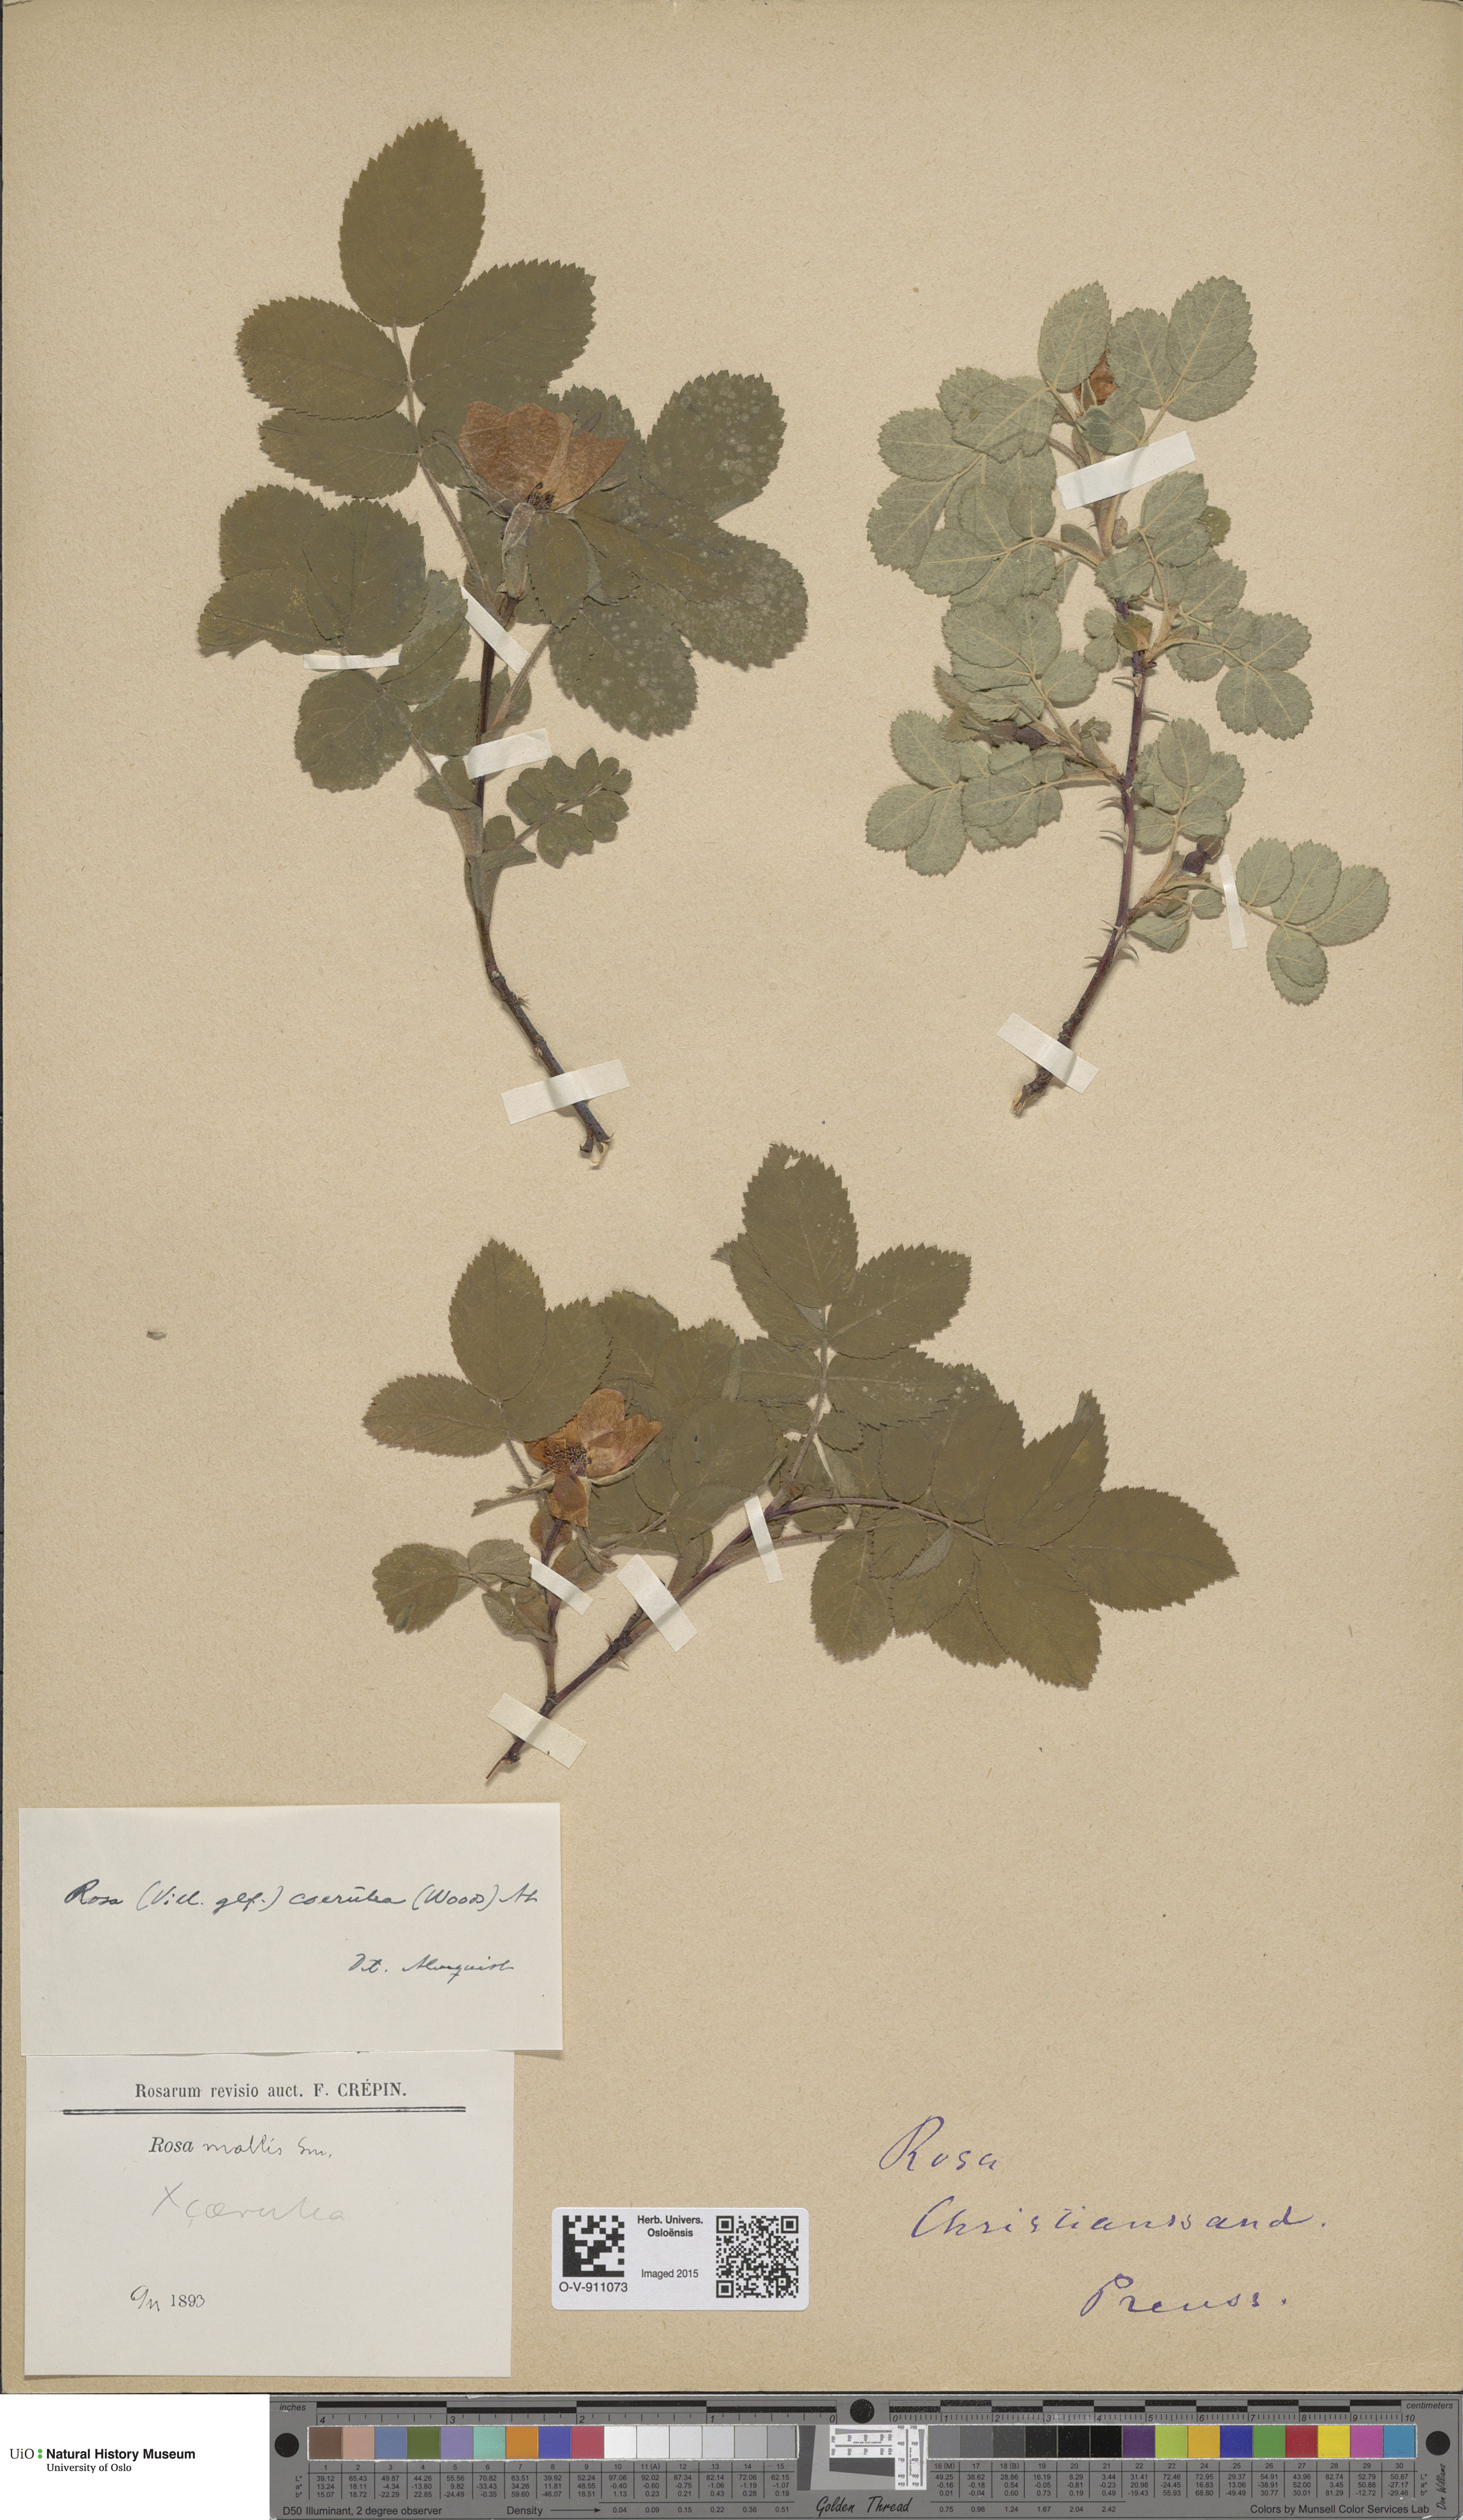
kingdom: Plantae
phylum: Tracheophyta
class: Magnoliopsida
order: Rosales
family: Rosaceae
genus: Rosa
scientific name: Rosa mollis
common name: Rose
